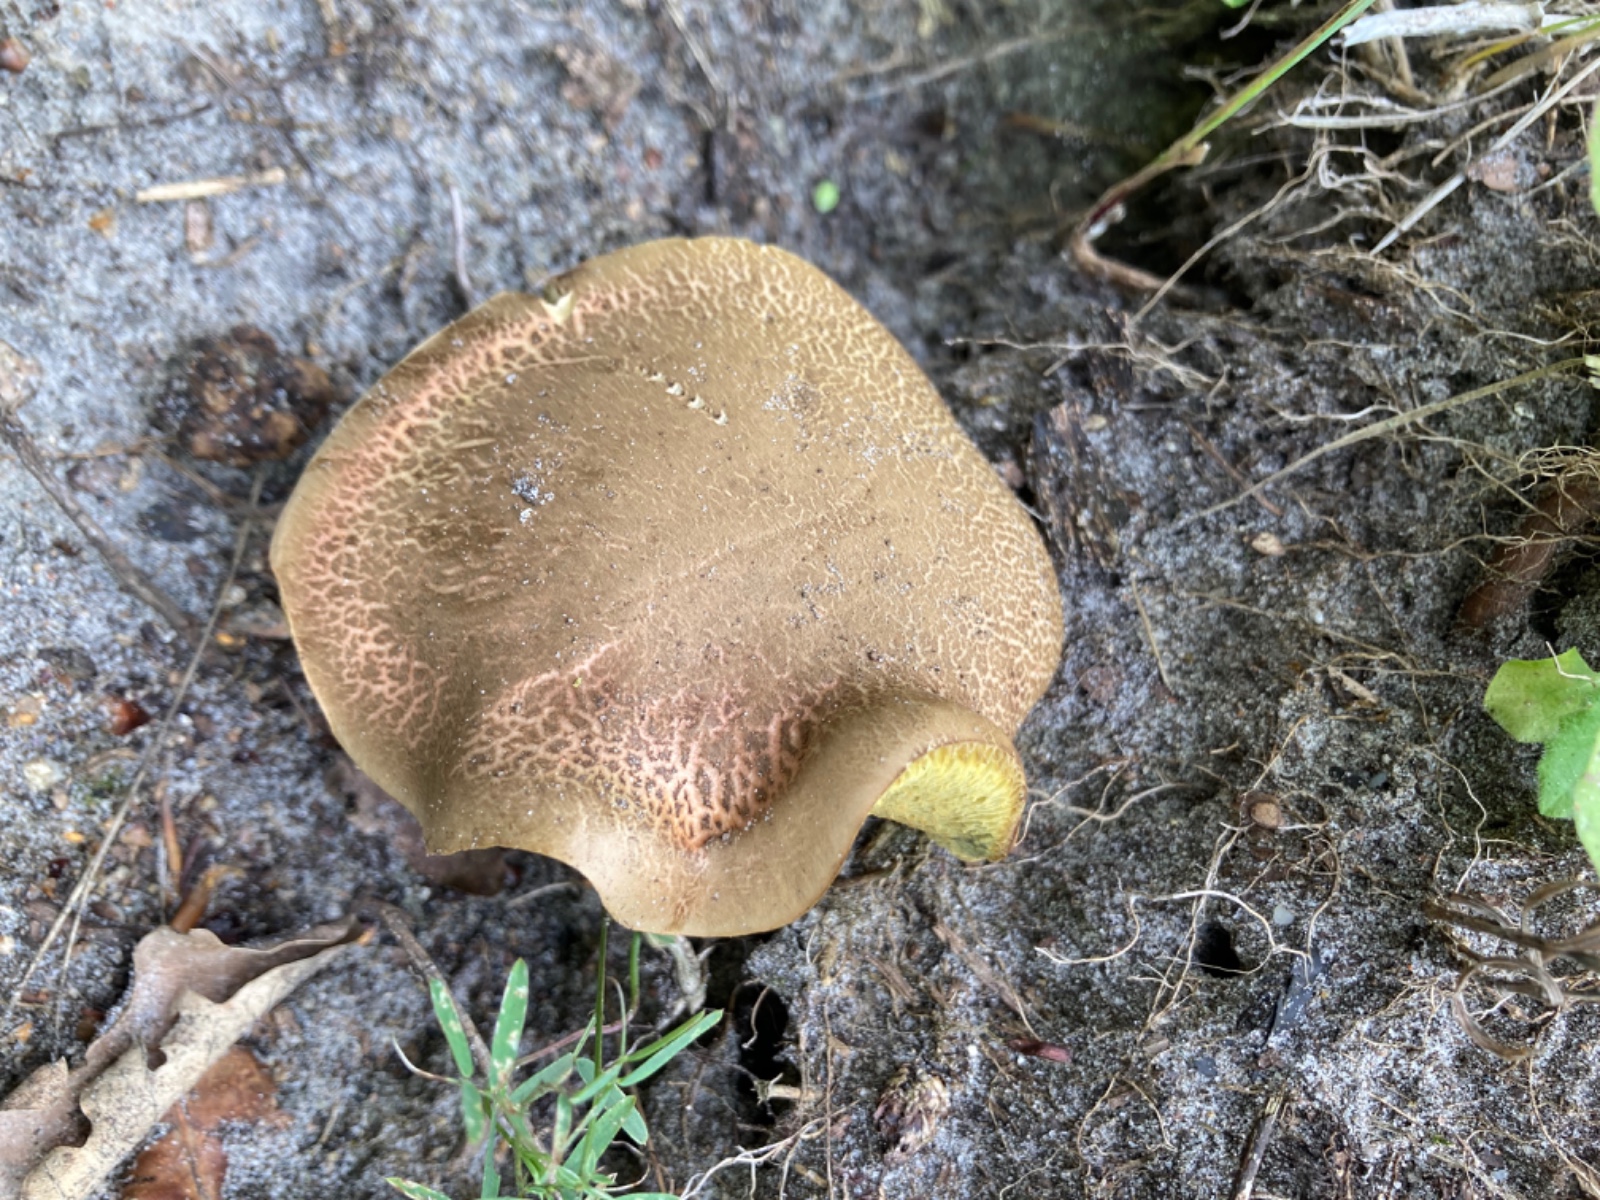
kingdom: Fungi
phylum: Basidiomycota
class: Agaricomycetes
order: Boletales
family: Boletaceae
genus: Xerocomellus
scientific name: Xerocomellus cisalpinus
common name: finsprukken rørhat
